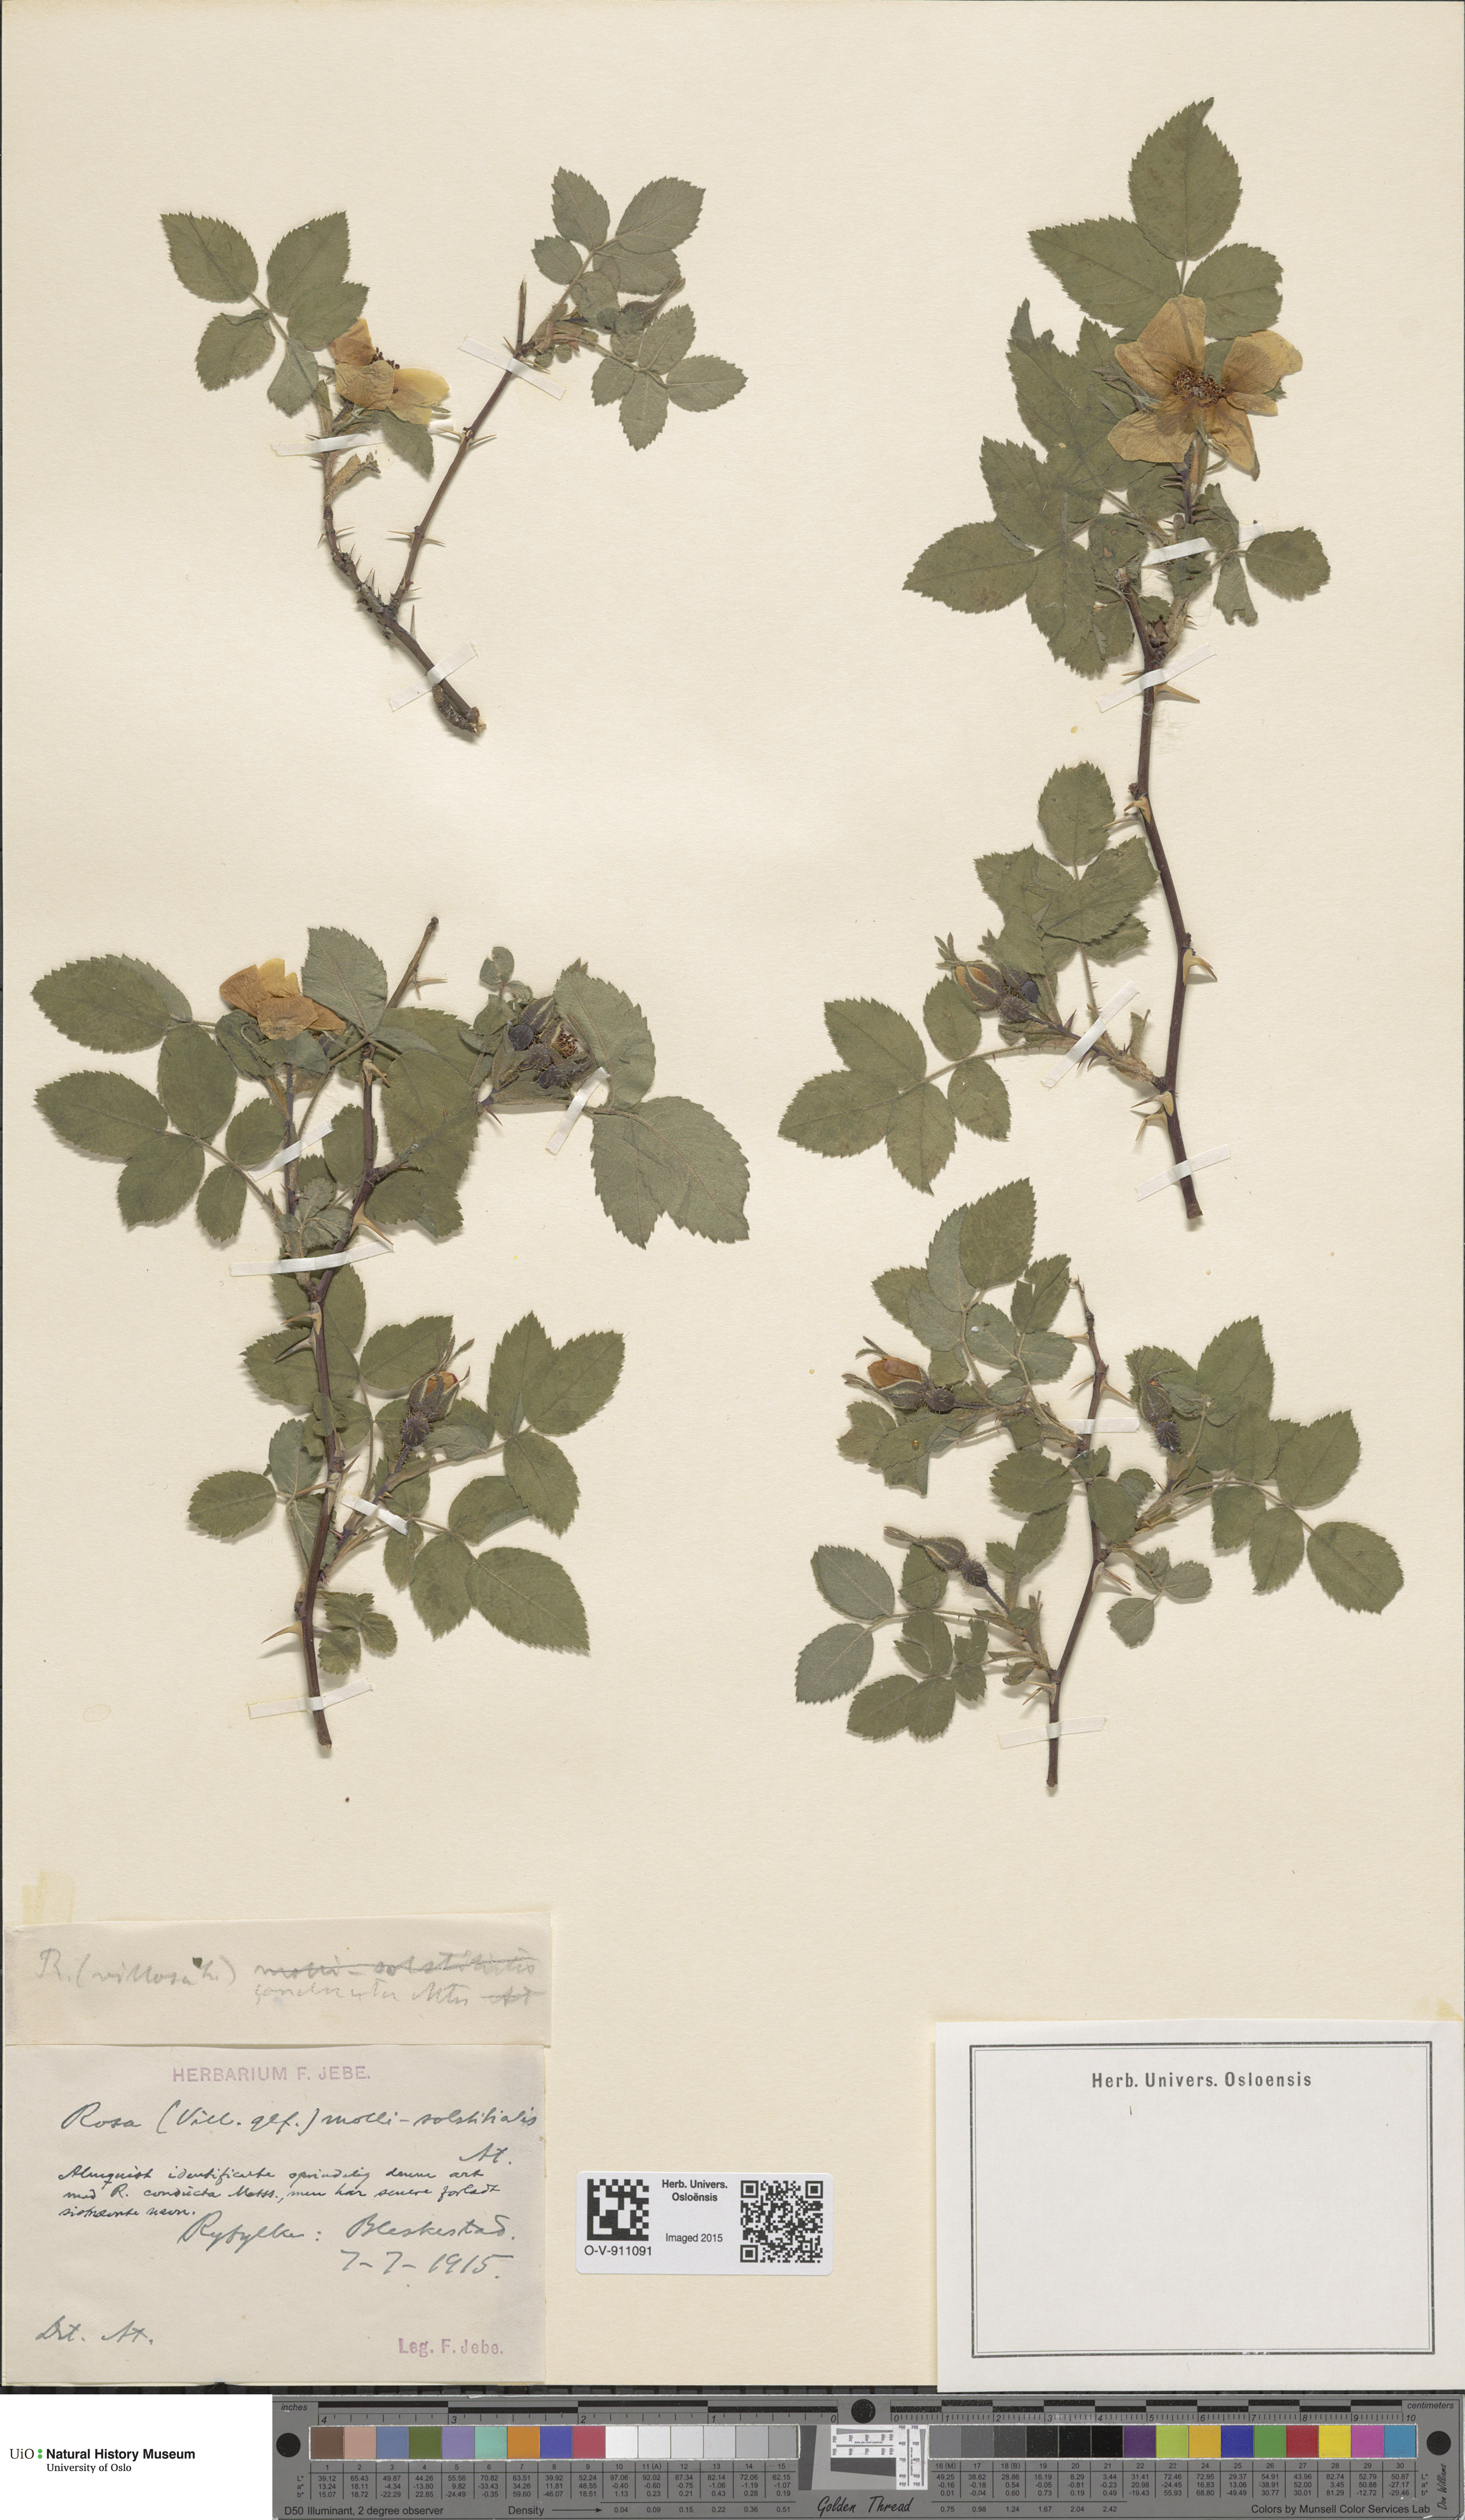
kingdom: Plantae
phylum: Tracheophyta
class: Magnoliopsida
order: Rosales
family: Rosaceae
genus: Rosa
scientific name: Rosa mollis
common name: Rose
